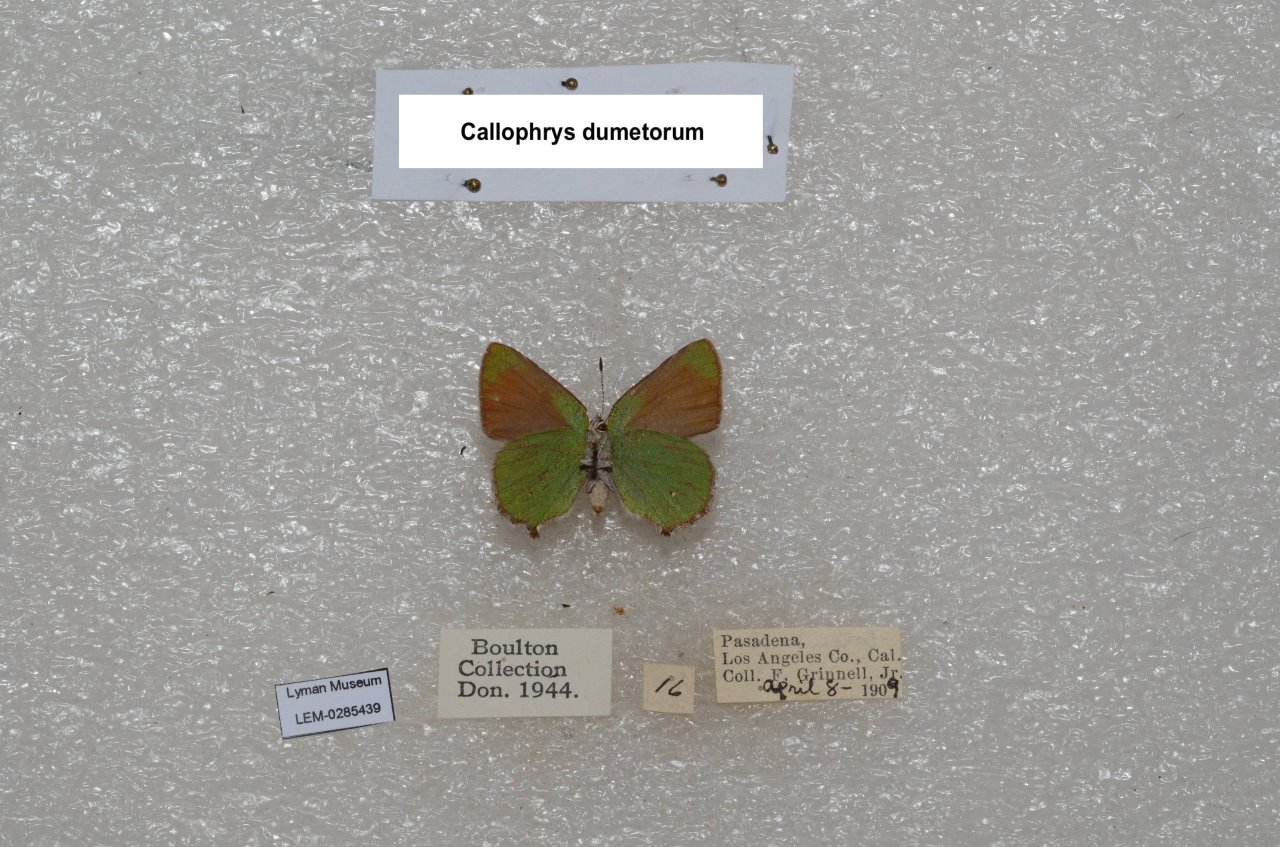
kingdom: Animalia
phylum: Arthropoda
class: Insecta
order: Lepidoptera
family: Lycaenidae
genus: Callophrys
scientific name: Callophrys dumetorum
